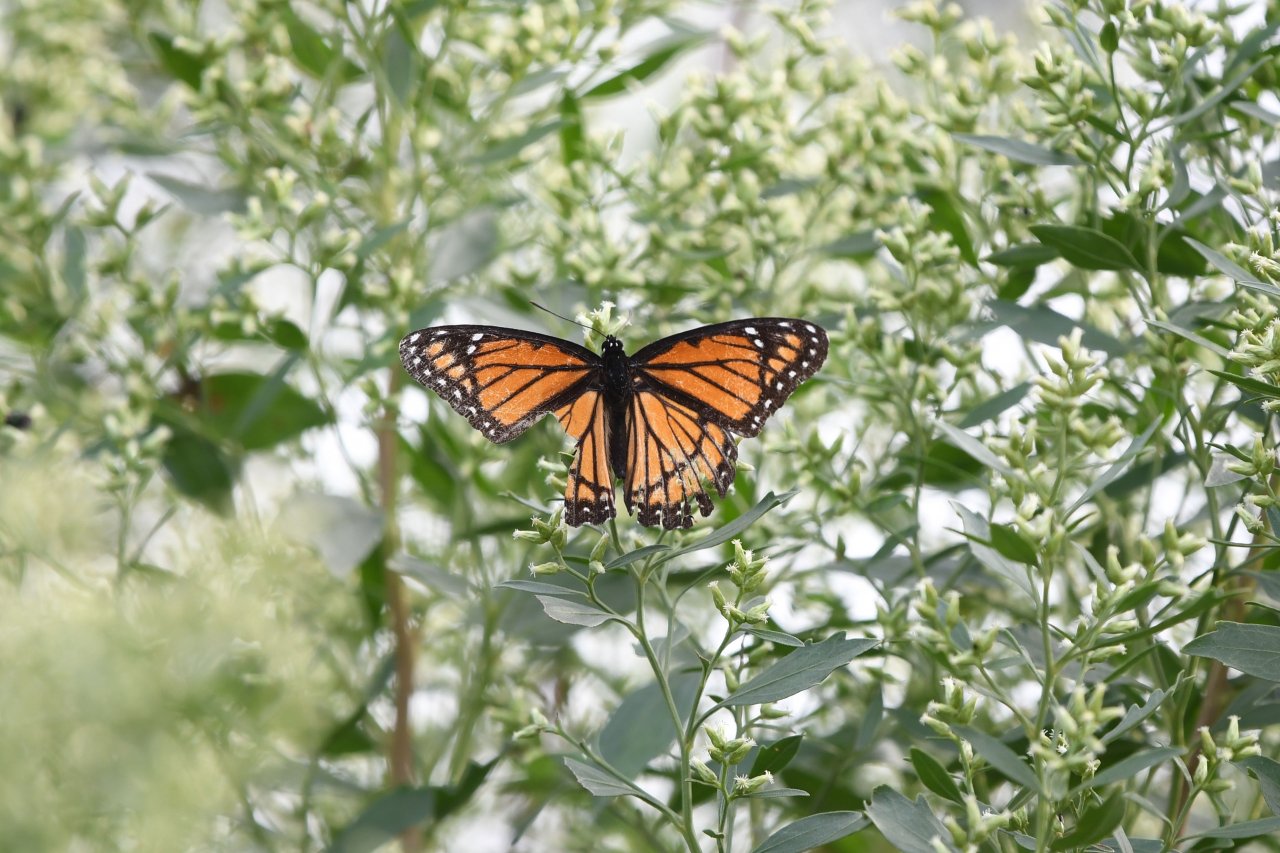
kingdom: Animalia
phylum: Arthropoda
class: Insecta
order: Lepidoptera
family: Nymphalidae
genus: Limenitis
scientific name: Limenitis archippus
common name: Viceroy
